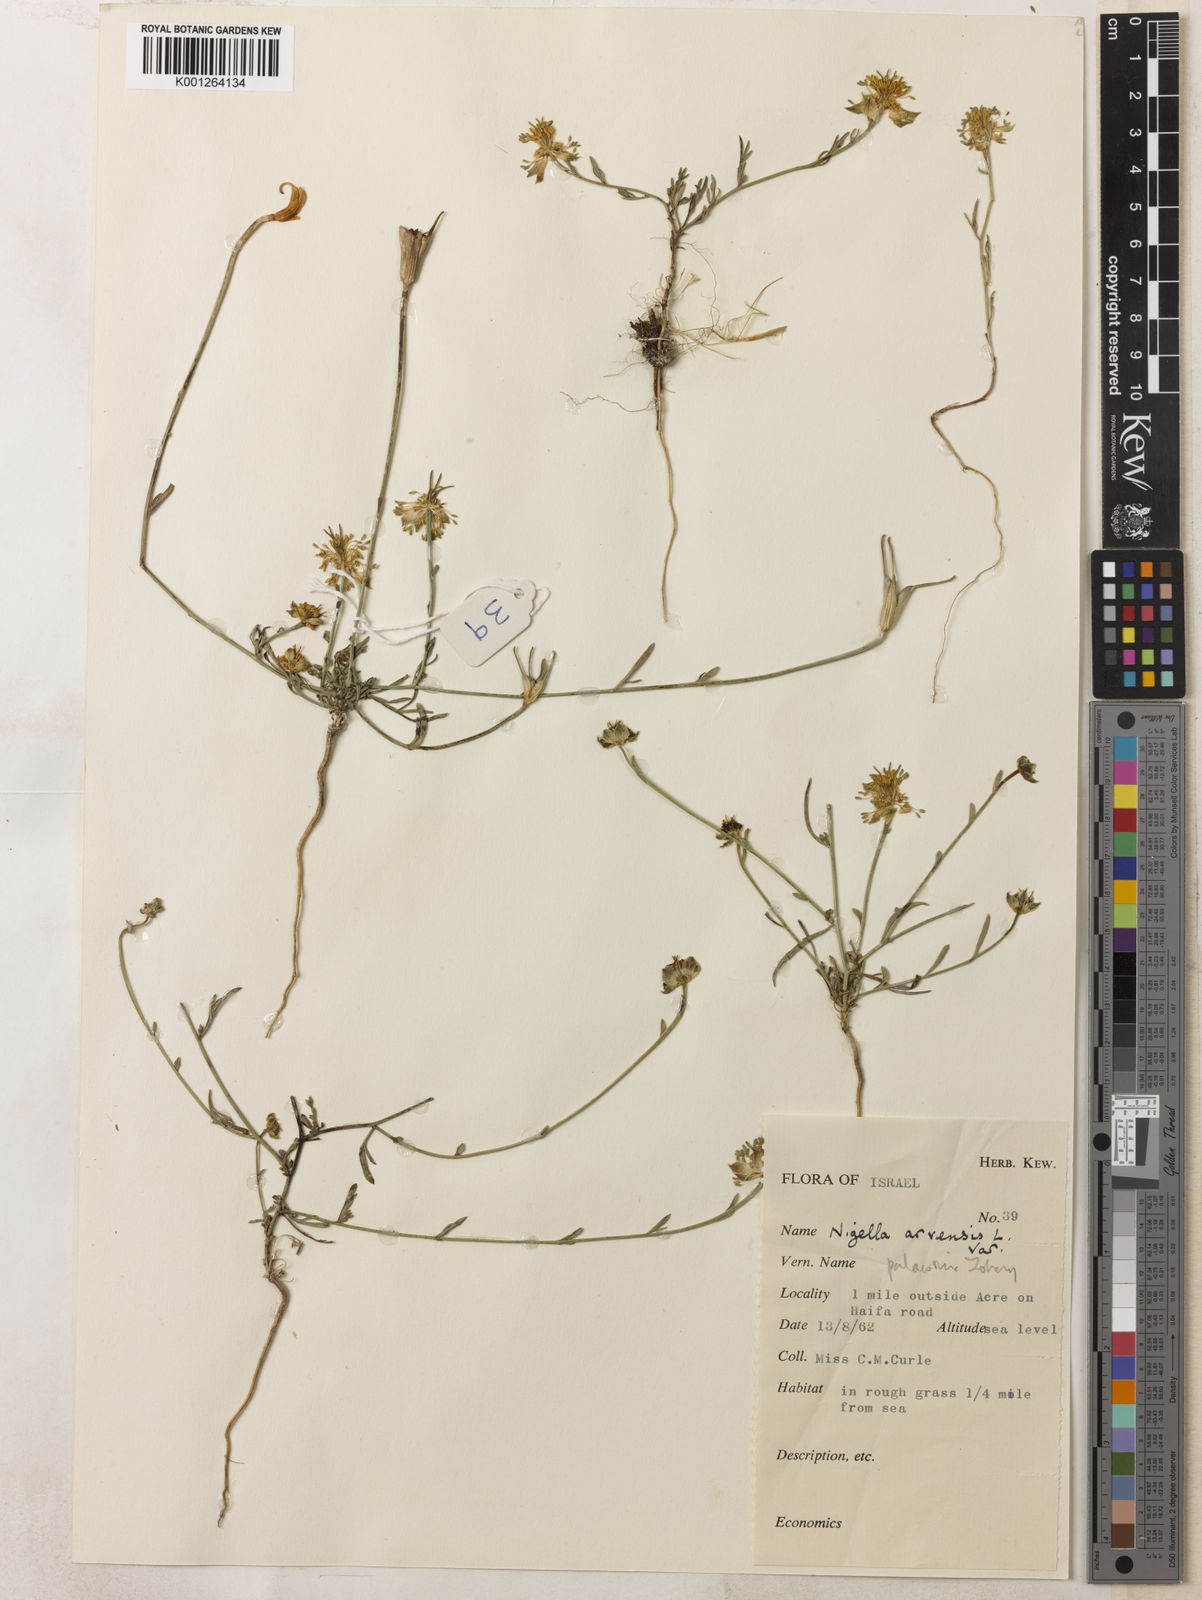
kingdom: Plantae
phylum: Tracheophyta
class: Magnoliopsida
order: Ranunculales
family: Ranunculaceae
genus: Nigella
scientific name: Nigella arvensis
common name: Wild fennel-flower
